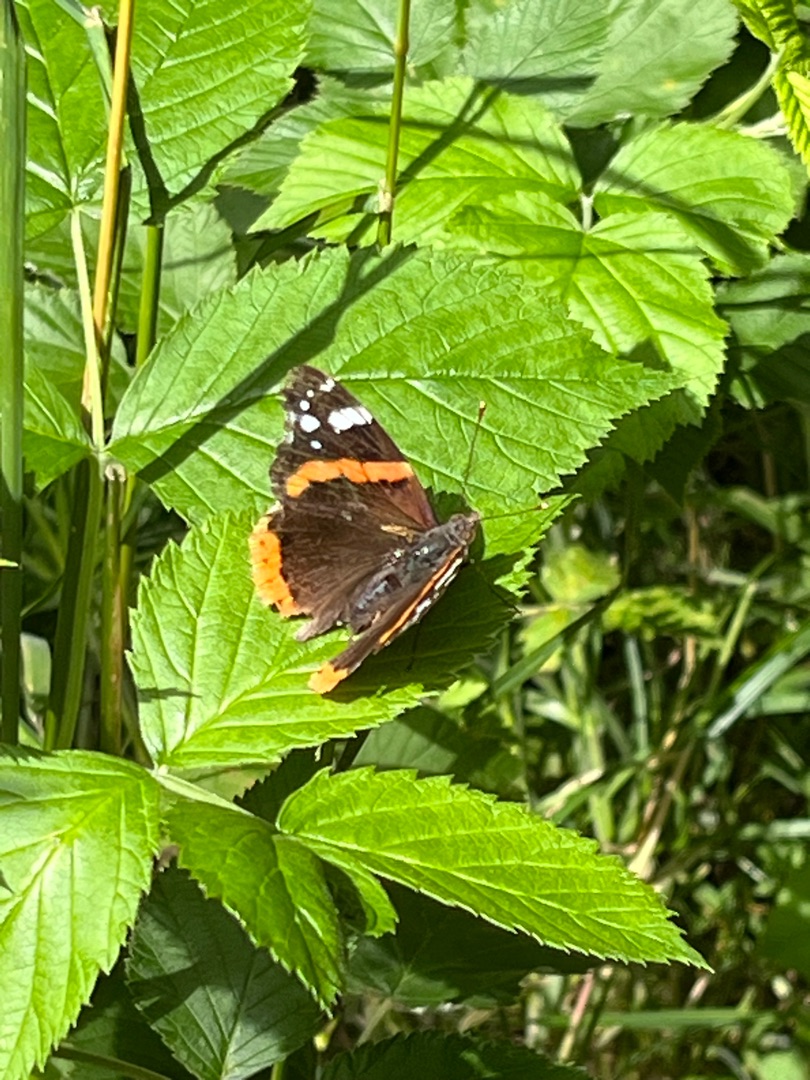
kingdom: Animalia
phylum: Arthropoda
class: Insecta
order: Lepidoptera
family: Nymphalidae
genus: Vanessa
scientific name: Vanessa atalanta
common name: Admiral
